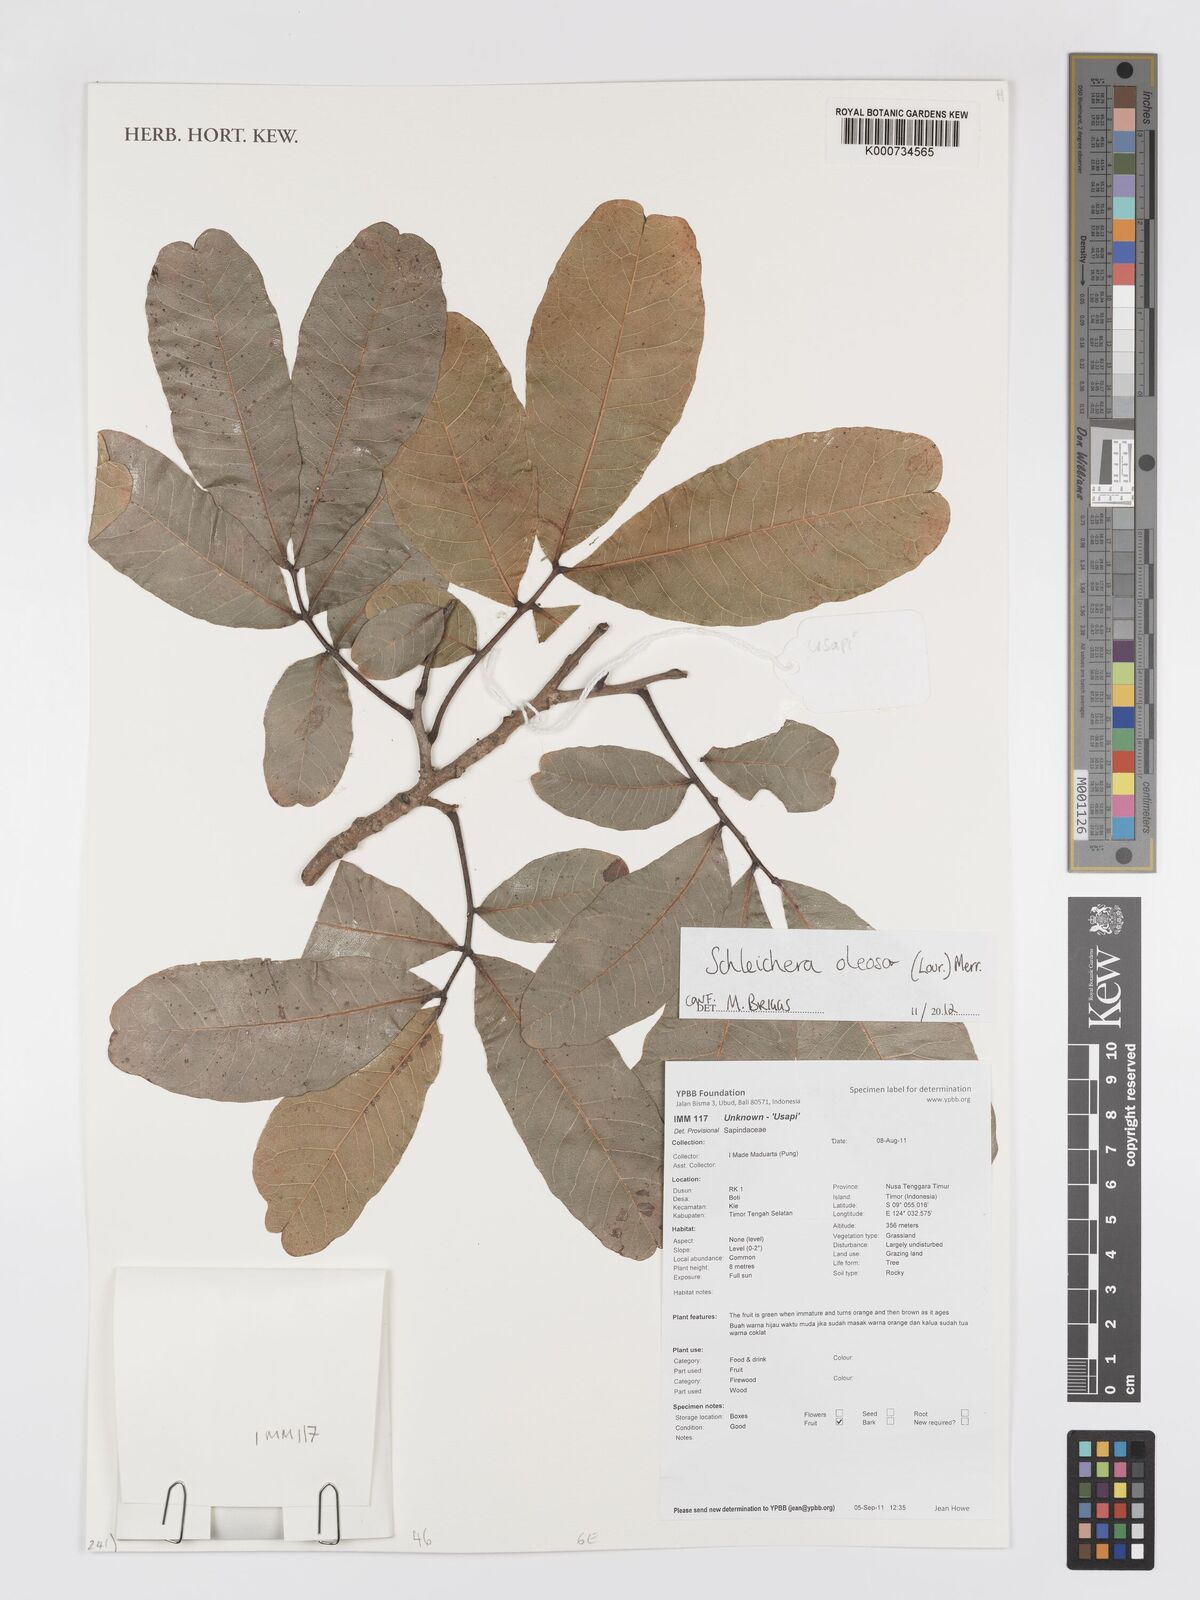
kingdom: Plantae
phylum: Tracheophyta
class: Magnoliopsida
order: Sapindales
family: Sapindaceae
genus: Schleichera
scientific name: Schleichera
